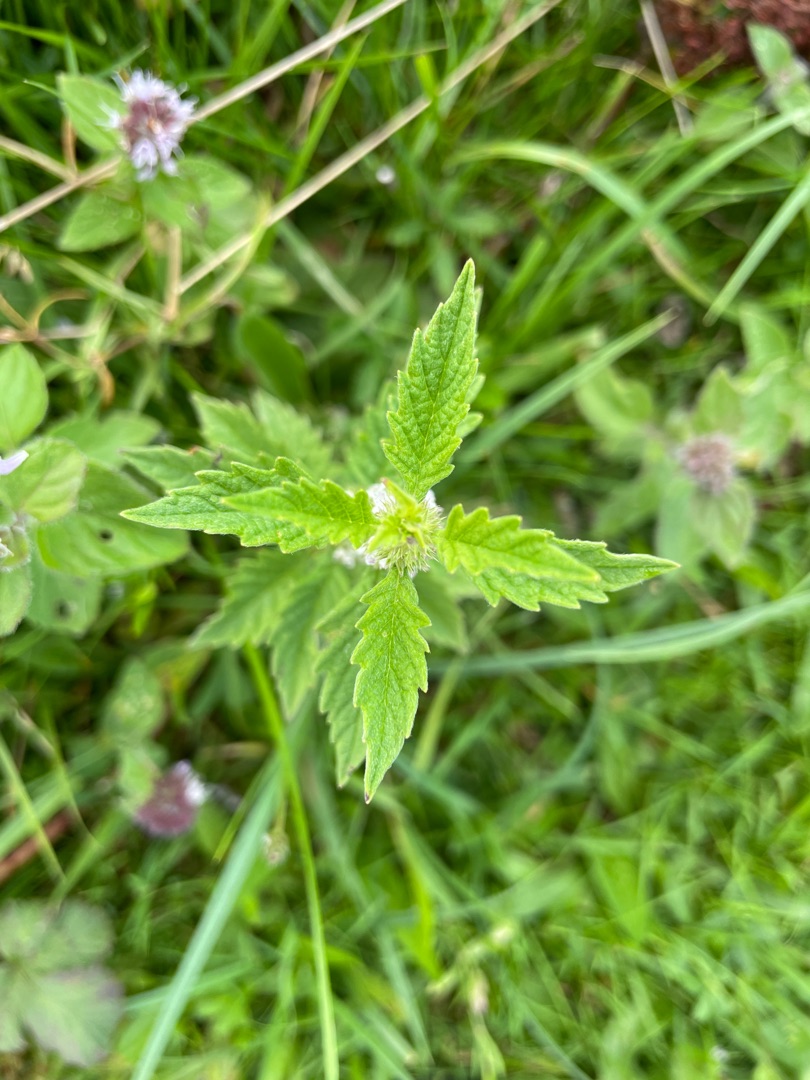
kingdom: Plantae
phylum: Tracheophyta
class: Magnoliopsida
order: Lamiales
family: Lamiaceae
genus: Lycopus
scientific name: Lycopus europaeus
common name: Sværtevæld
